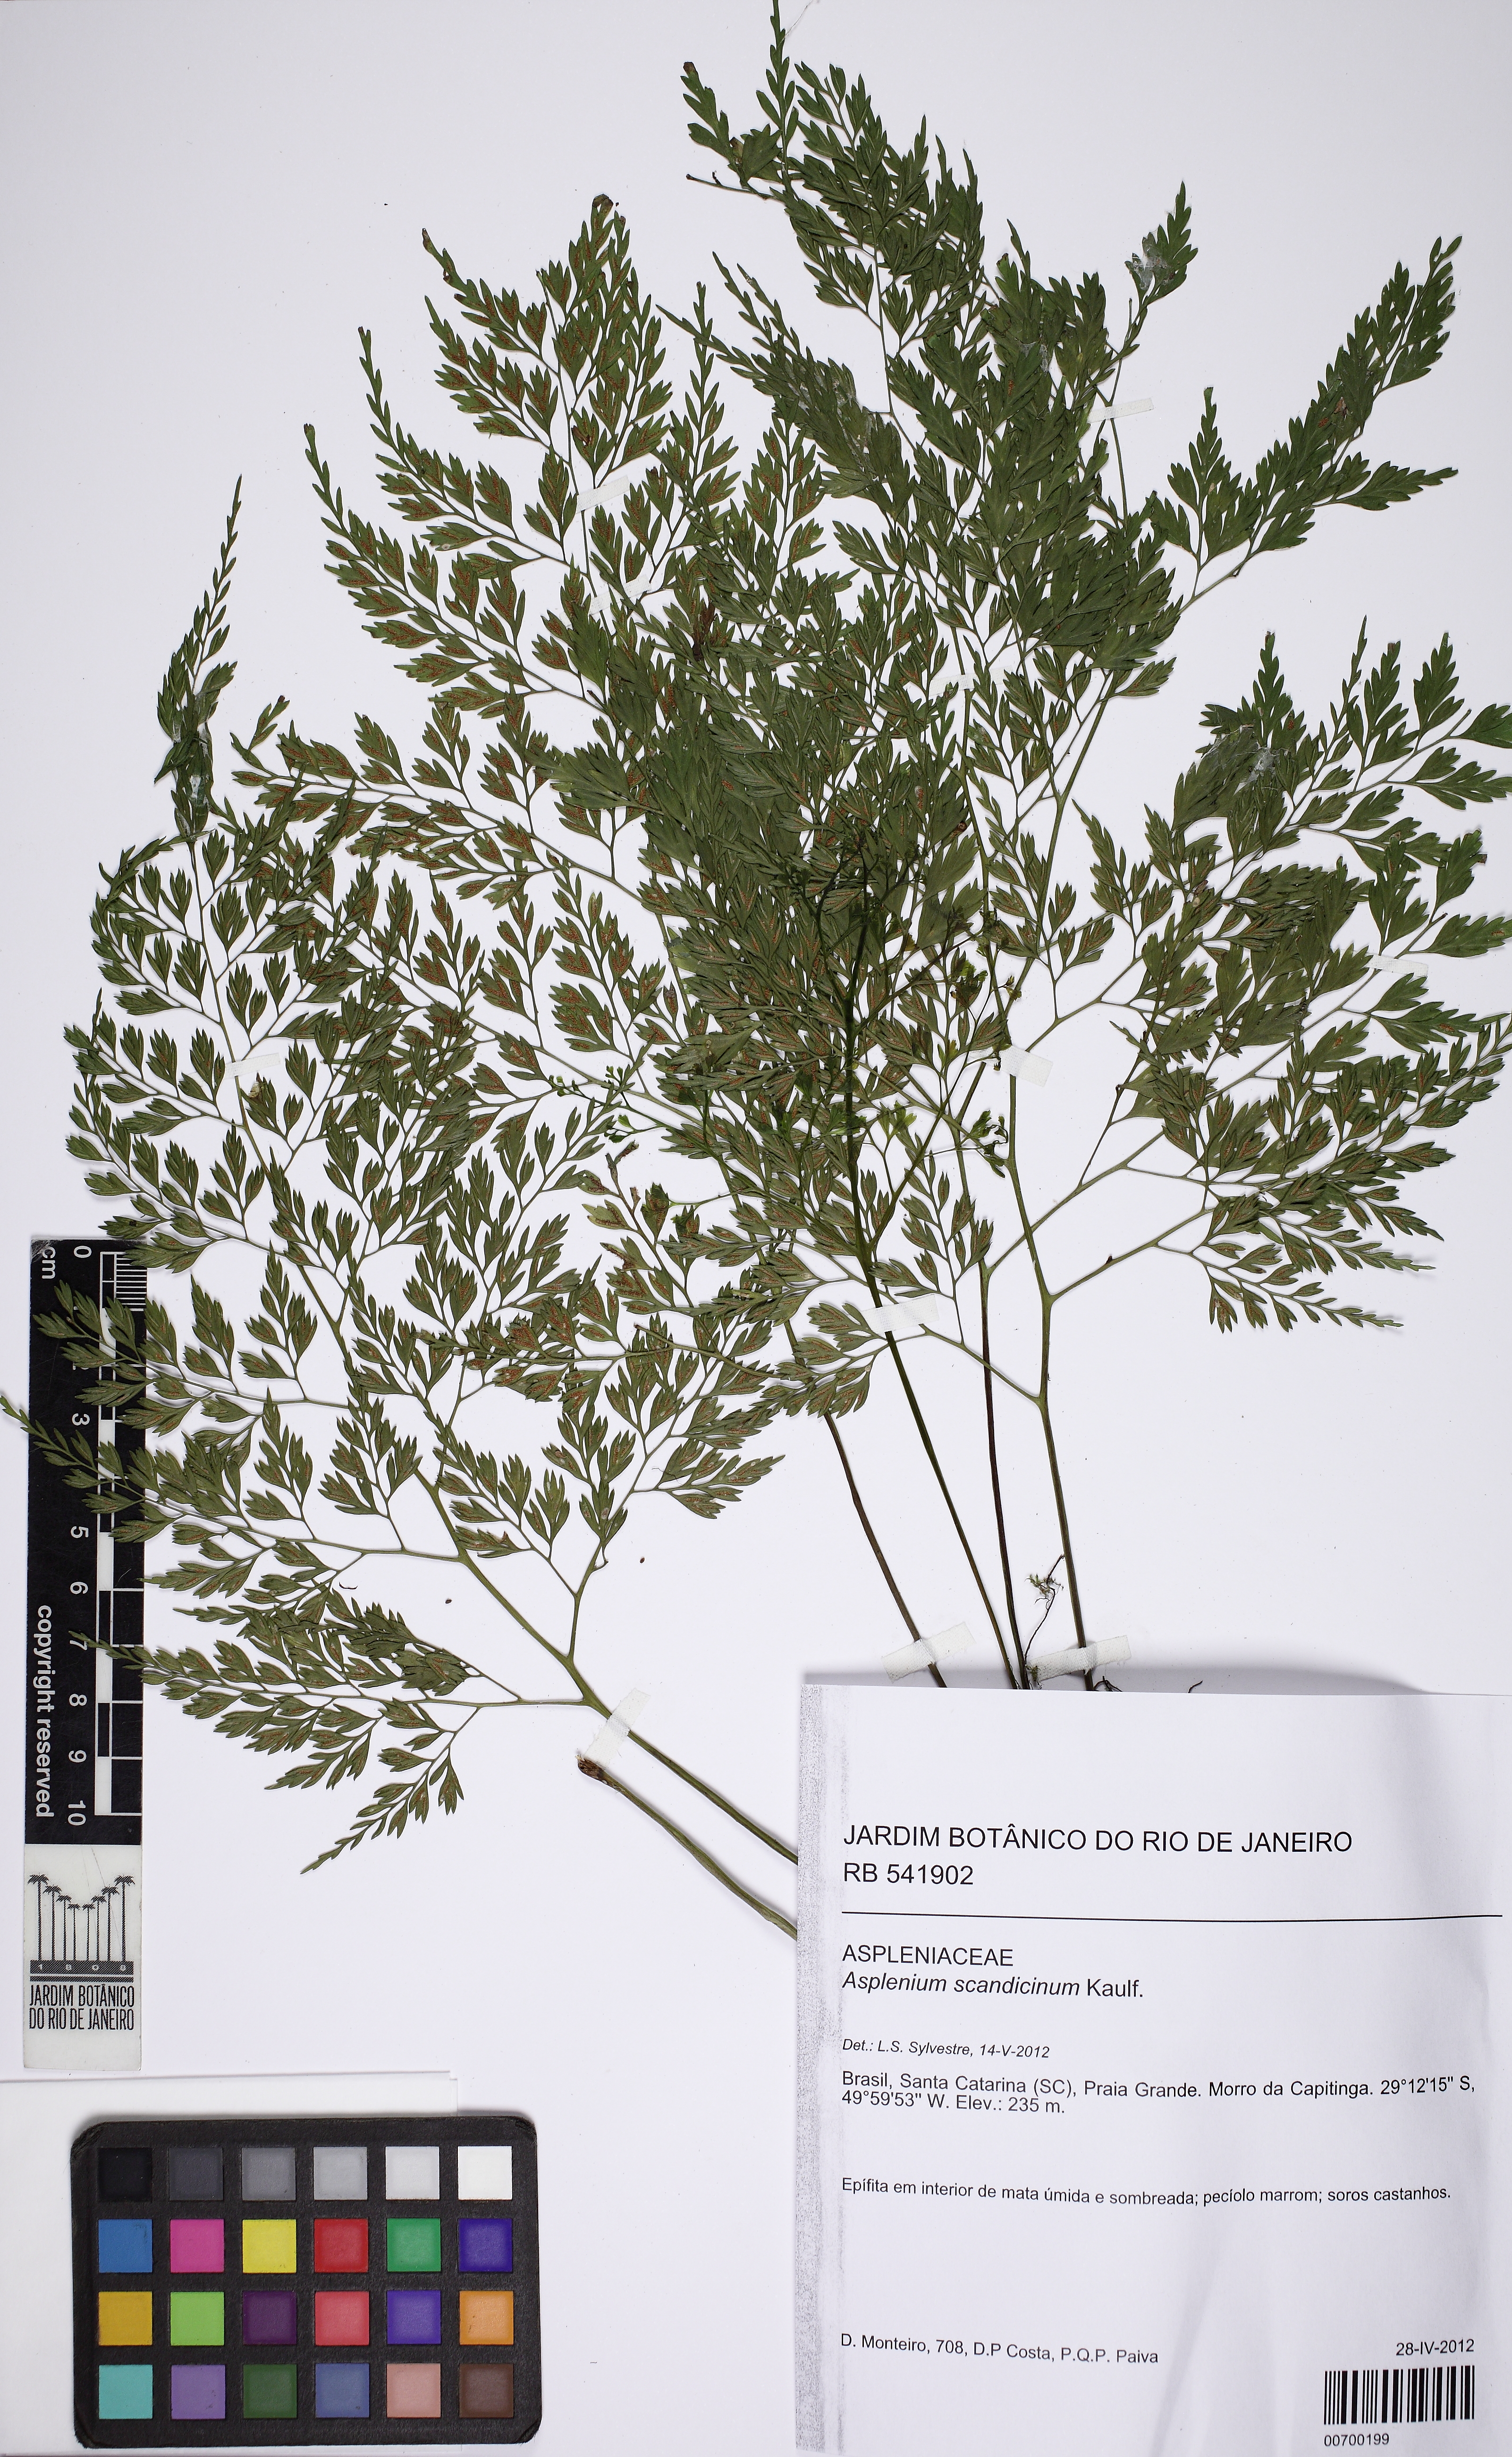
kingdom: Plantae
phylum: Tracheophyta
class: Polypodiopsida
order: Polypodiales
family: Aspleniaceae
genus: Asplenium
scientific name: Asplenium scandicinum
